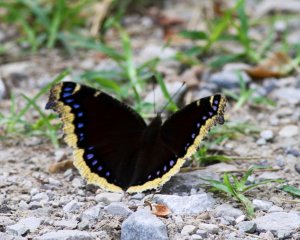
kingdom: Animalia
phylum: Arthropoda
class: Insecta
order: Lepidoptera
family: Nymphalidae
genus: Nymphalis
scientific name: Nymphalis antiopa
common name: Mourning Cloak
